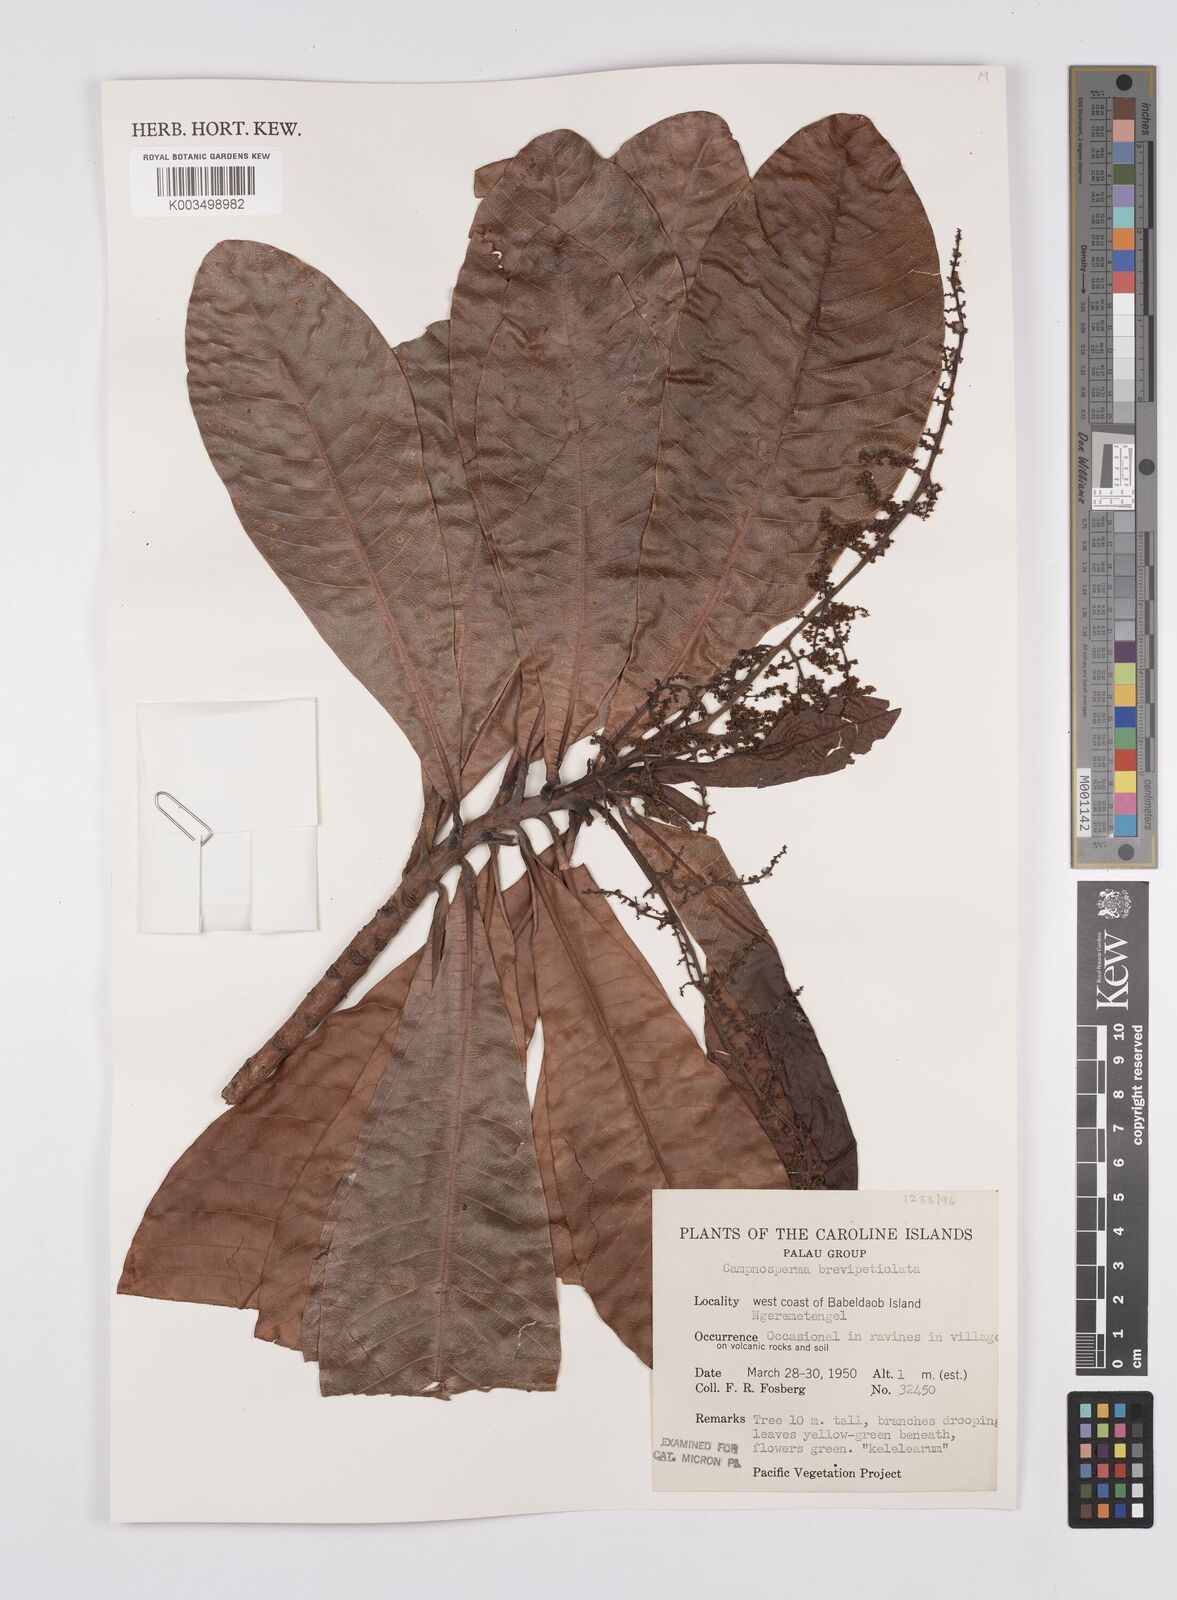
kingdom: Plantae
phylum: Tracheophyta
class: Magnoliopsida
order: Sapindales
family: Anacardiaceae
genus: Campnosperma
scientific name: Campnosperma brevipetiolatum
